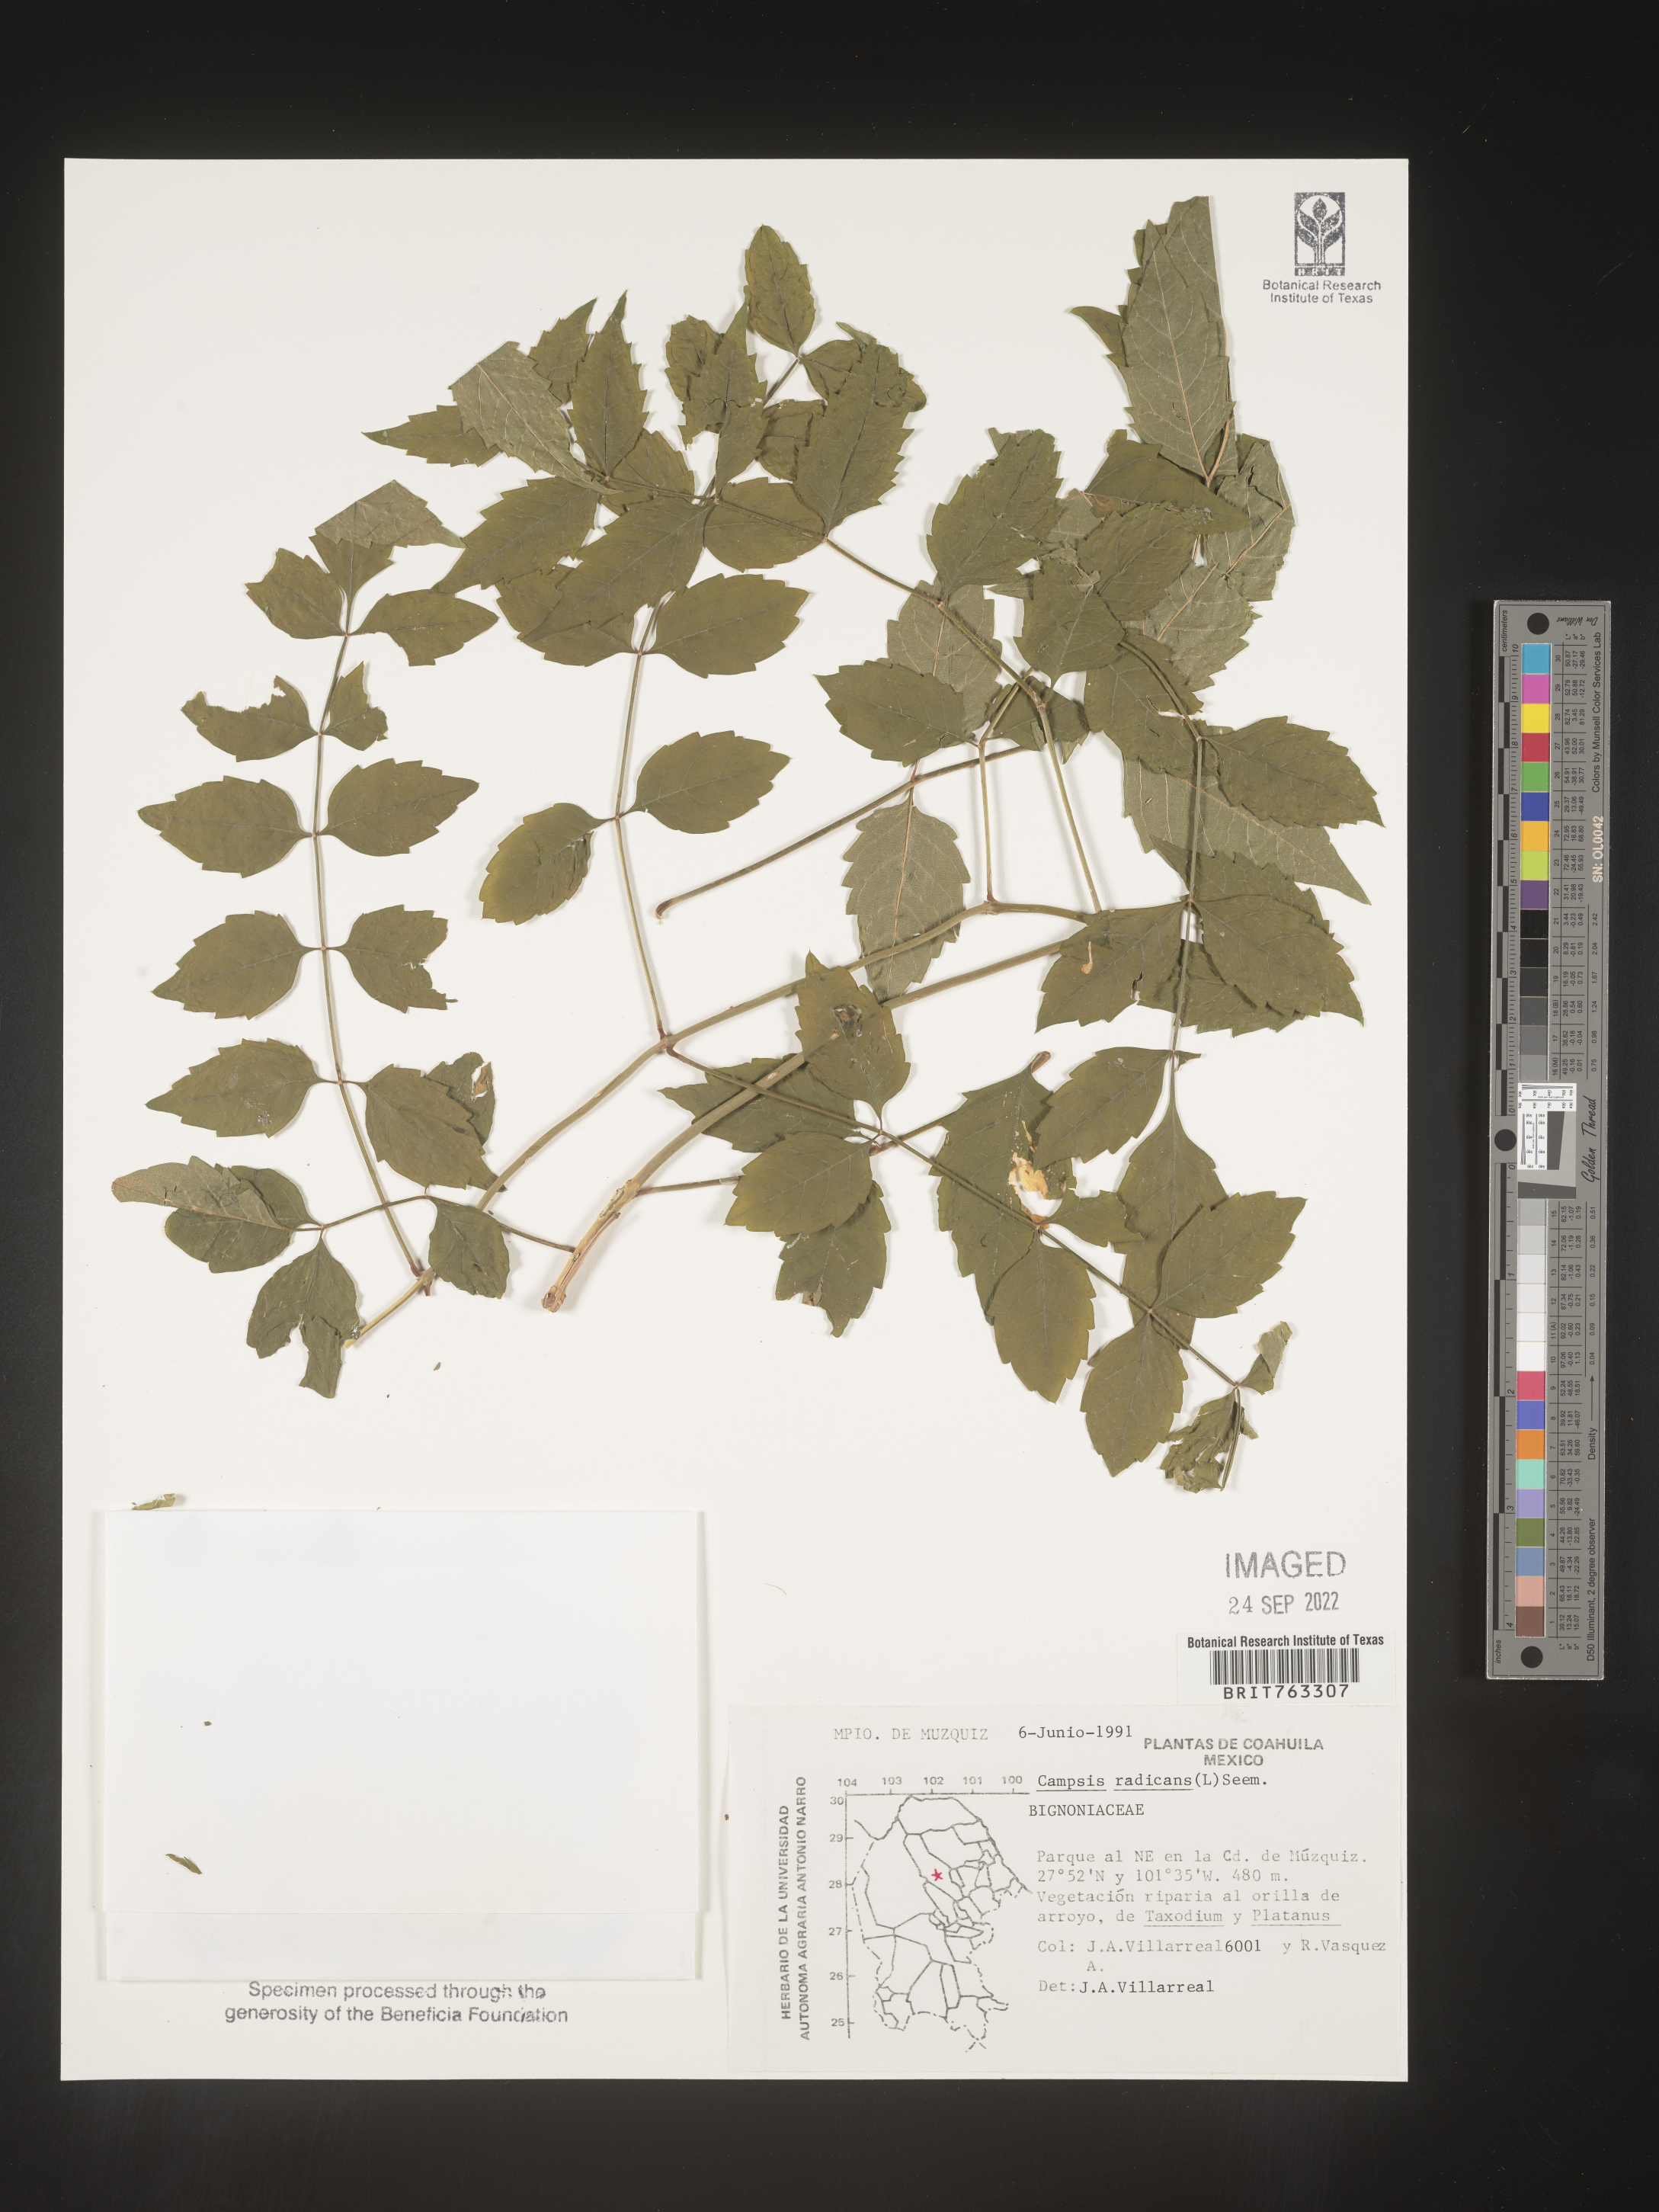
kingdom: Plantae
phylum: Tracheophyta
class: Magnoliopsida
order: Lamiales
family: Bignoniaceae
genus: Campsis
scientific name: Campsis
